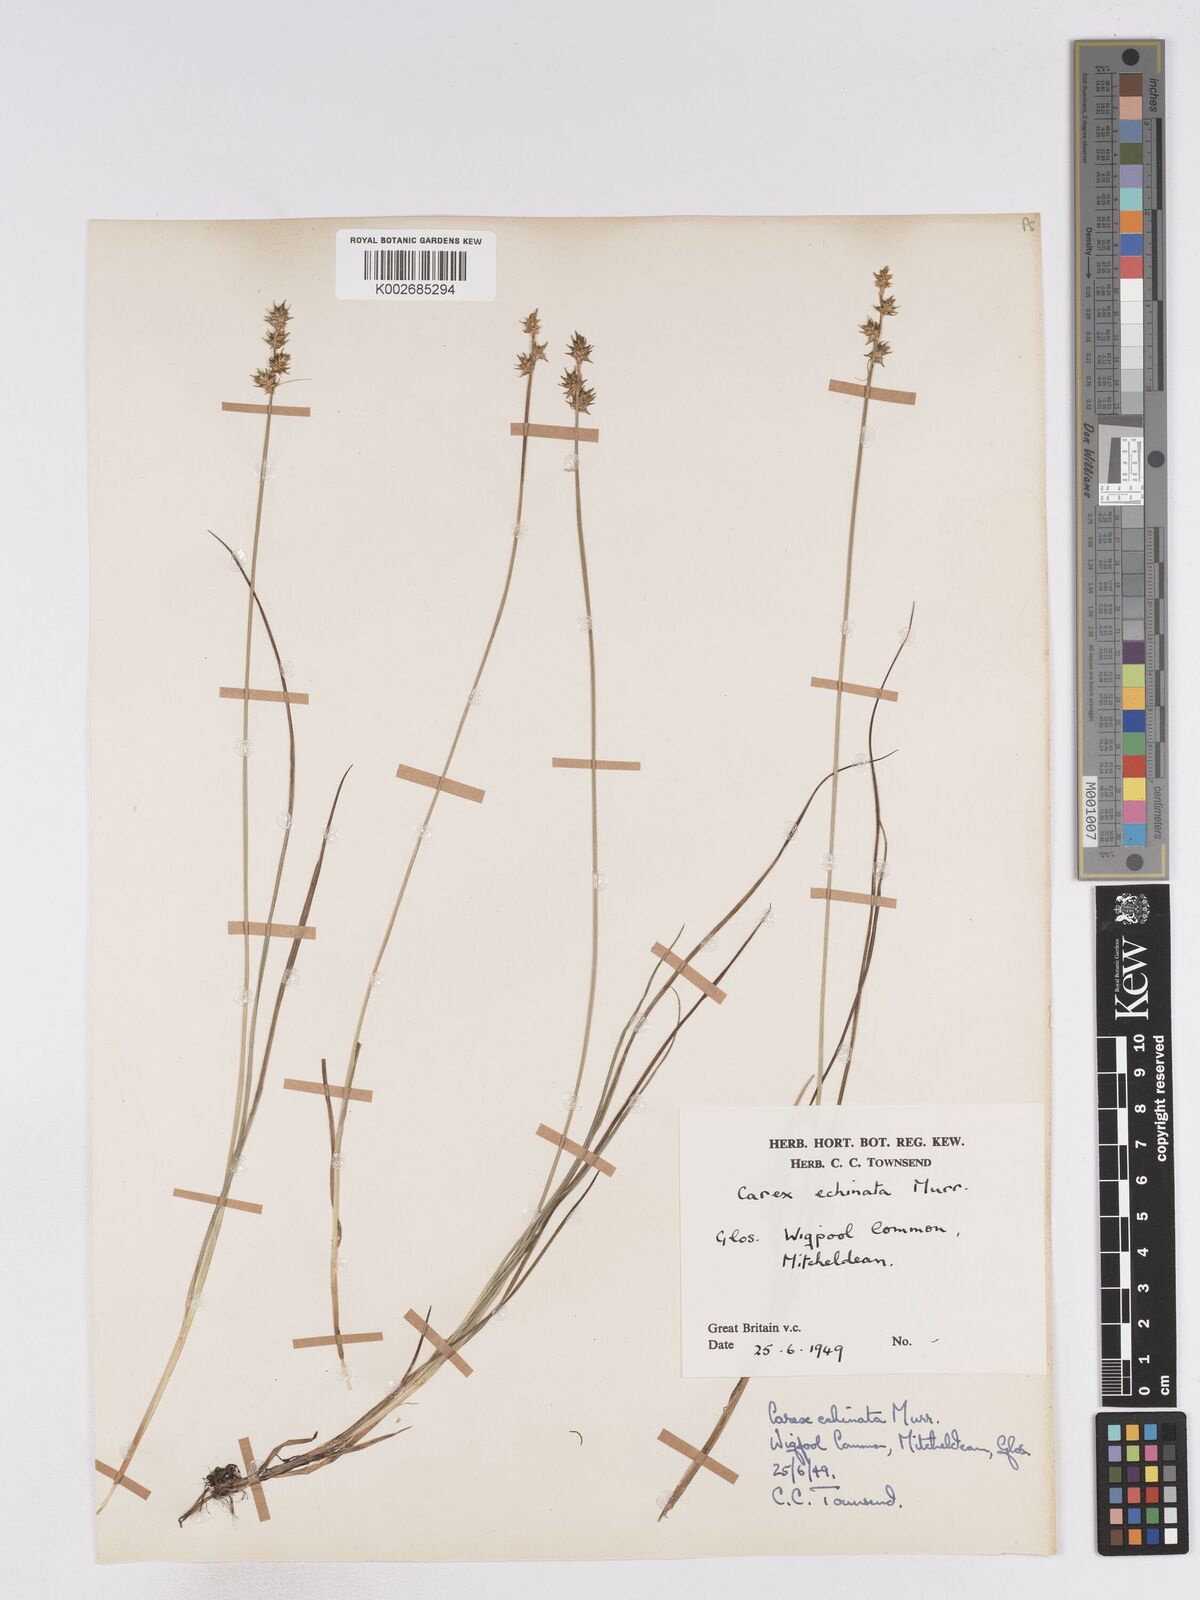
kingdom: Plantae
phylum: Tracheophyta
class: Liliopsida
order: Poales
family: Cyperaceae
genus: Carex
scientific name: Carex echinata
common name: Star sedge
